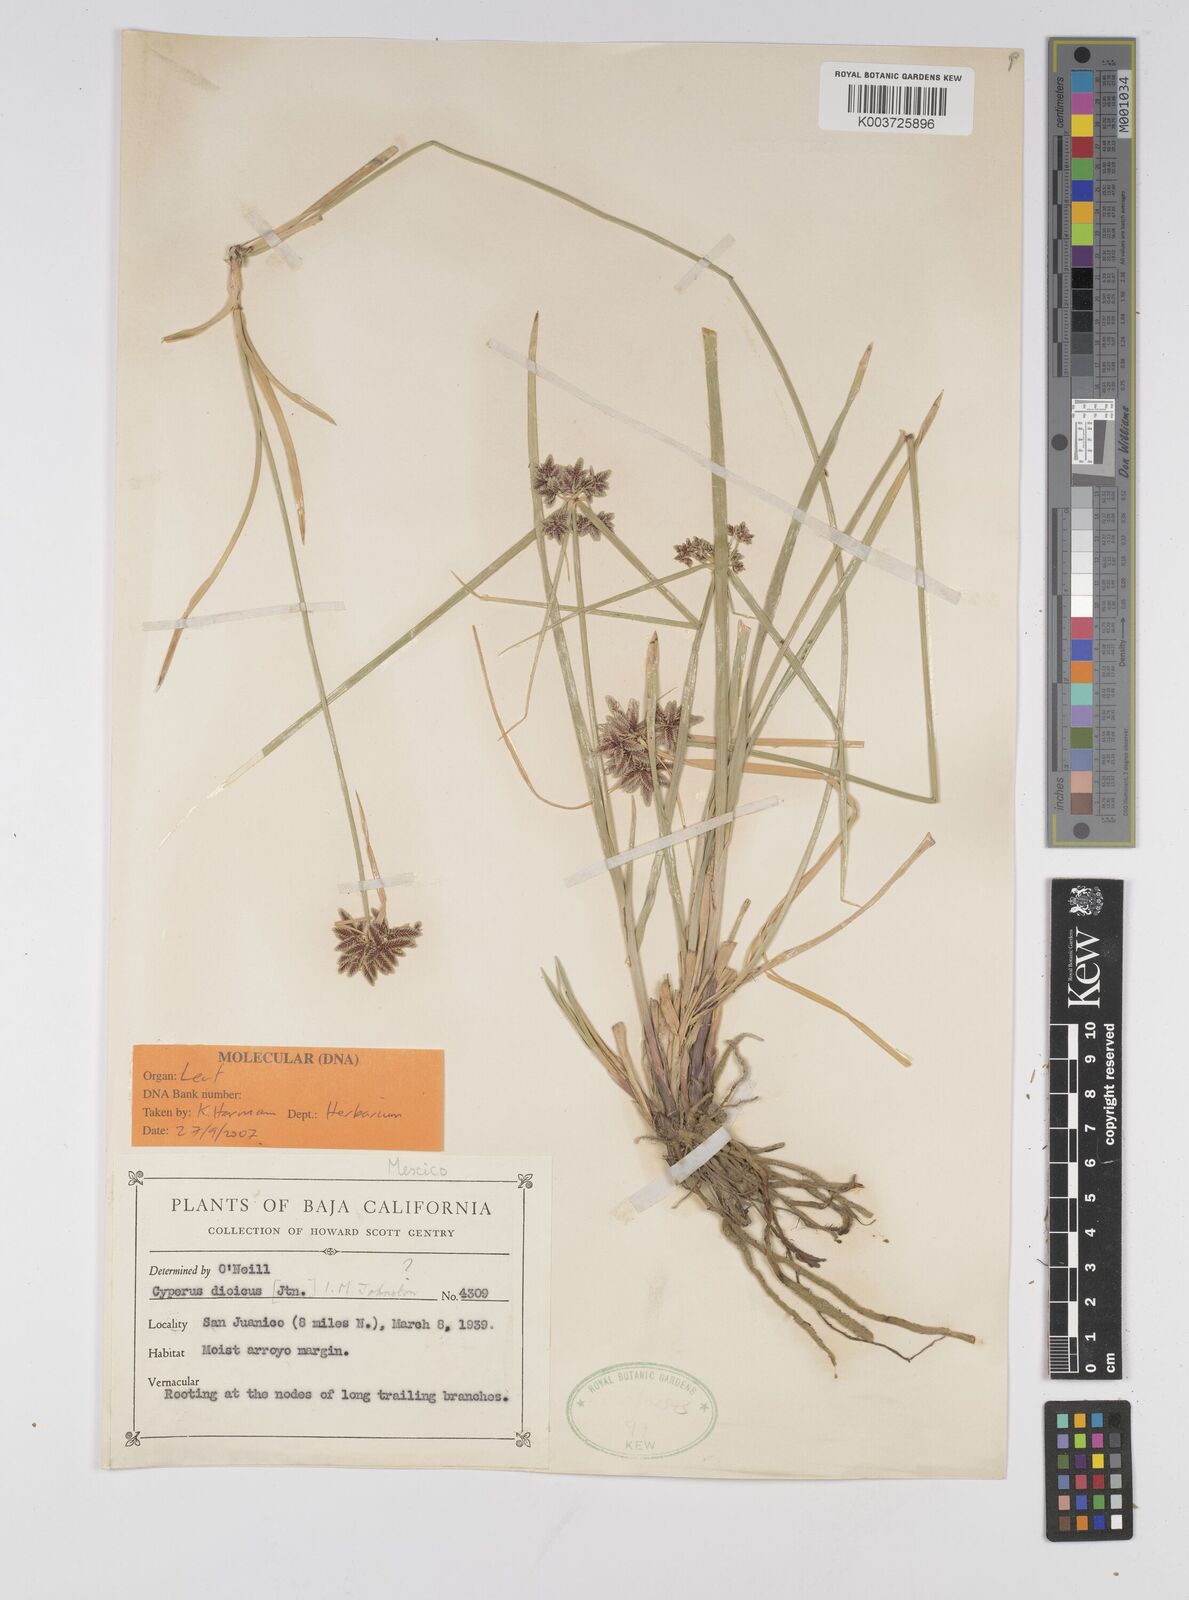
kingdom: Plantae
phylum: Tracheophyta
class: Liliopsida
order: Poales
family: Cyperaceae
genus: Cyperus
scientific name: Cyperus dioicus
